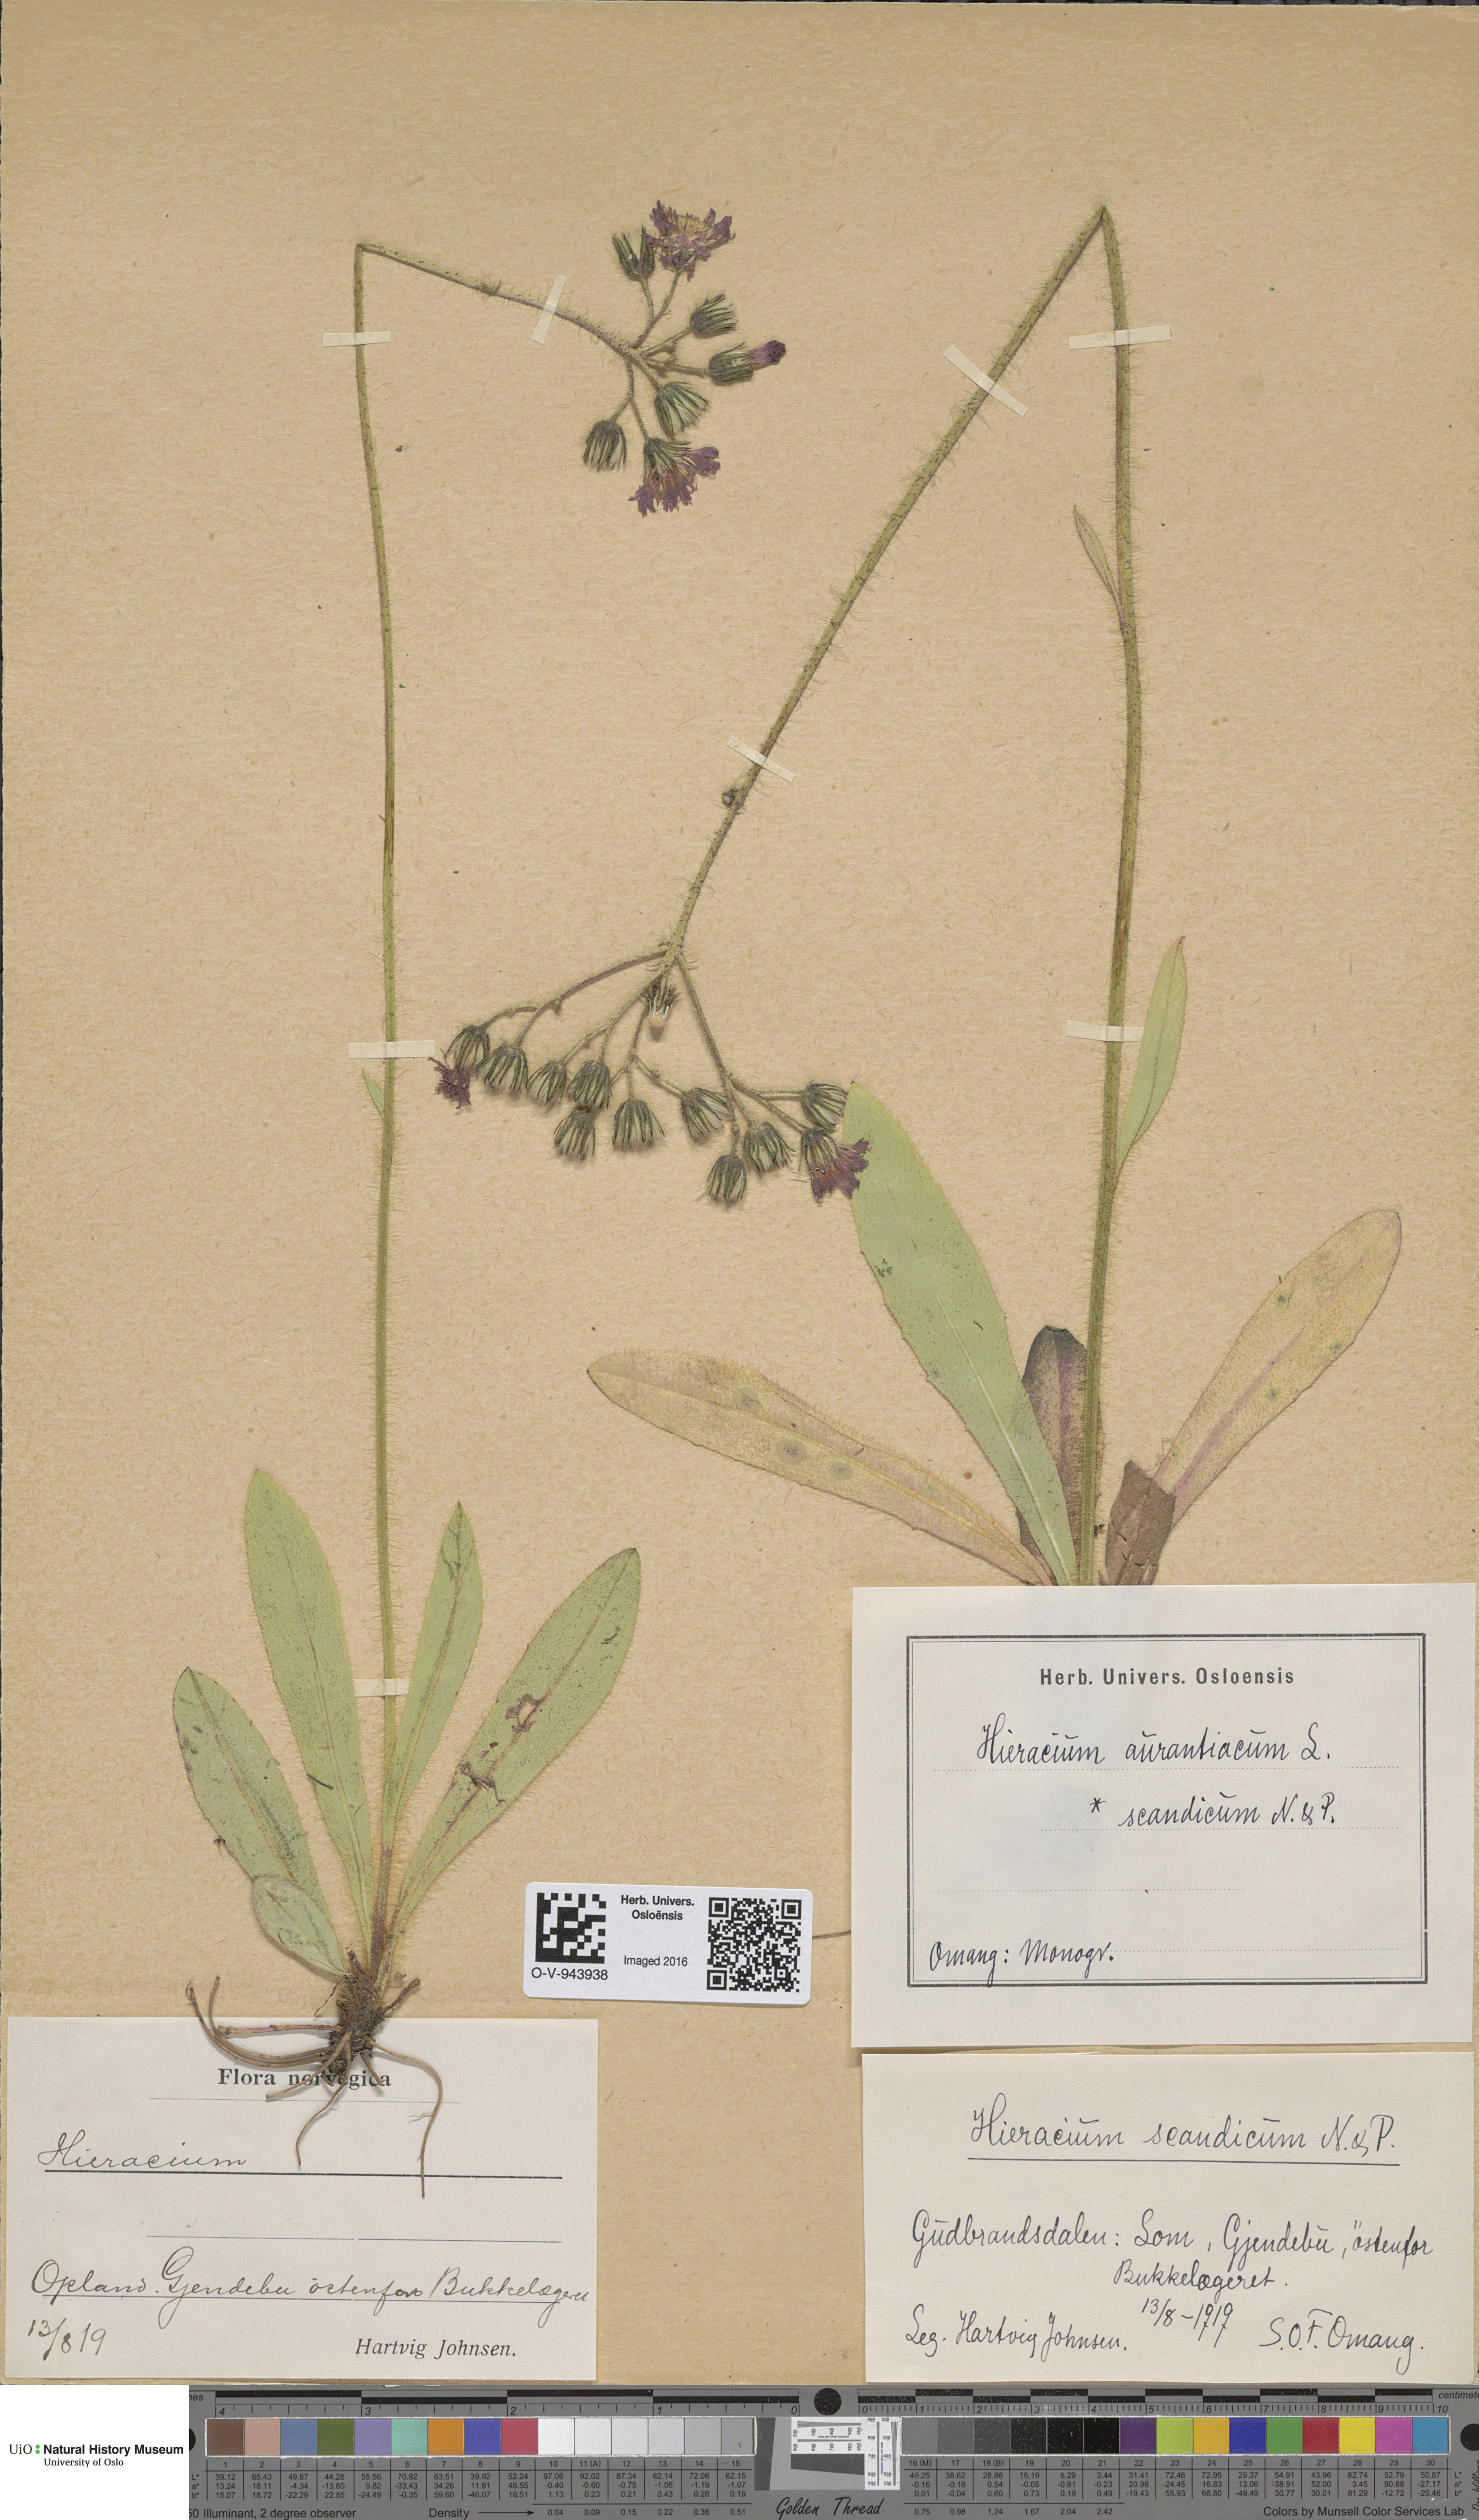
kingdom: Plantae
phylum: Tracheophyta
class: Magnoliopsida
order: Asterales
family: Asteraceae
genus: Pilosella
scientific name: Pilosella aurantiaca
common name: Fox-and-cubs
